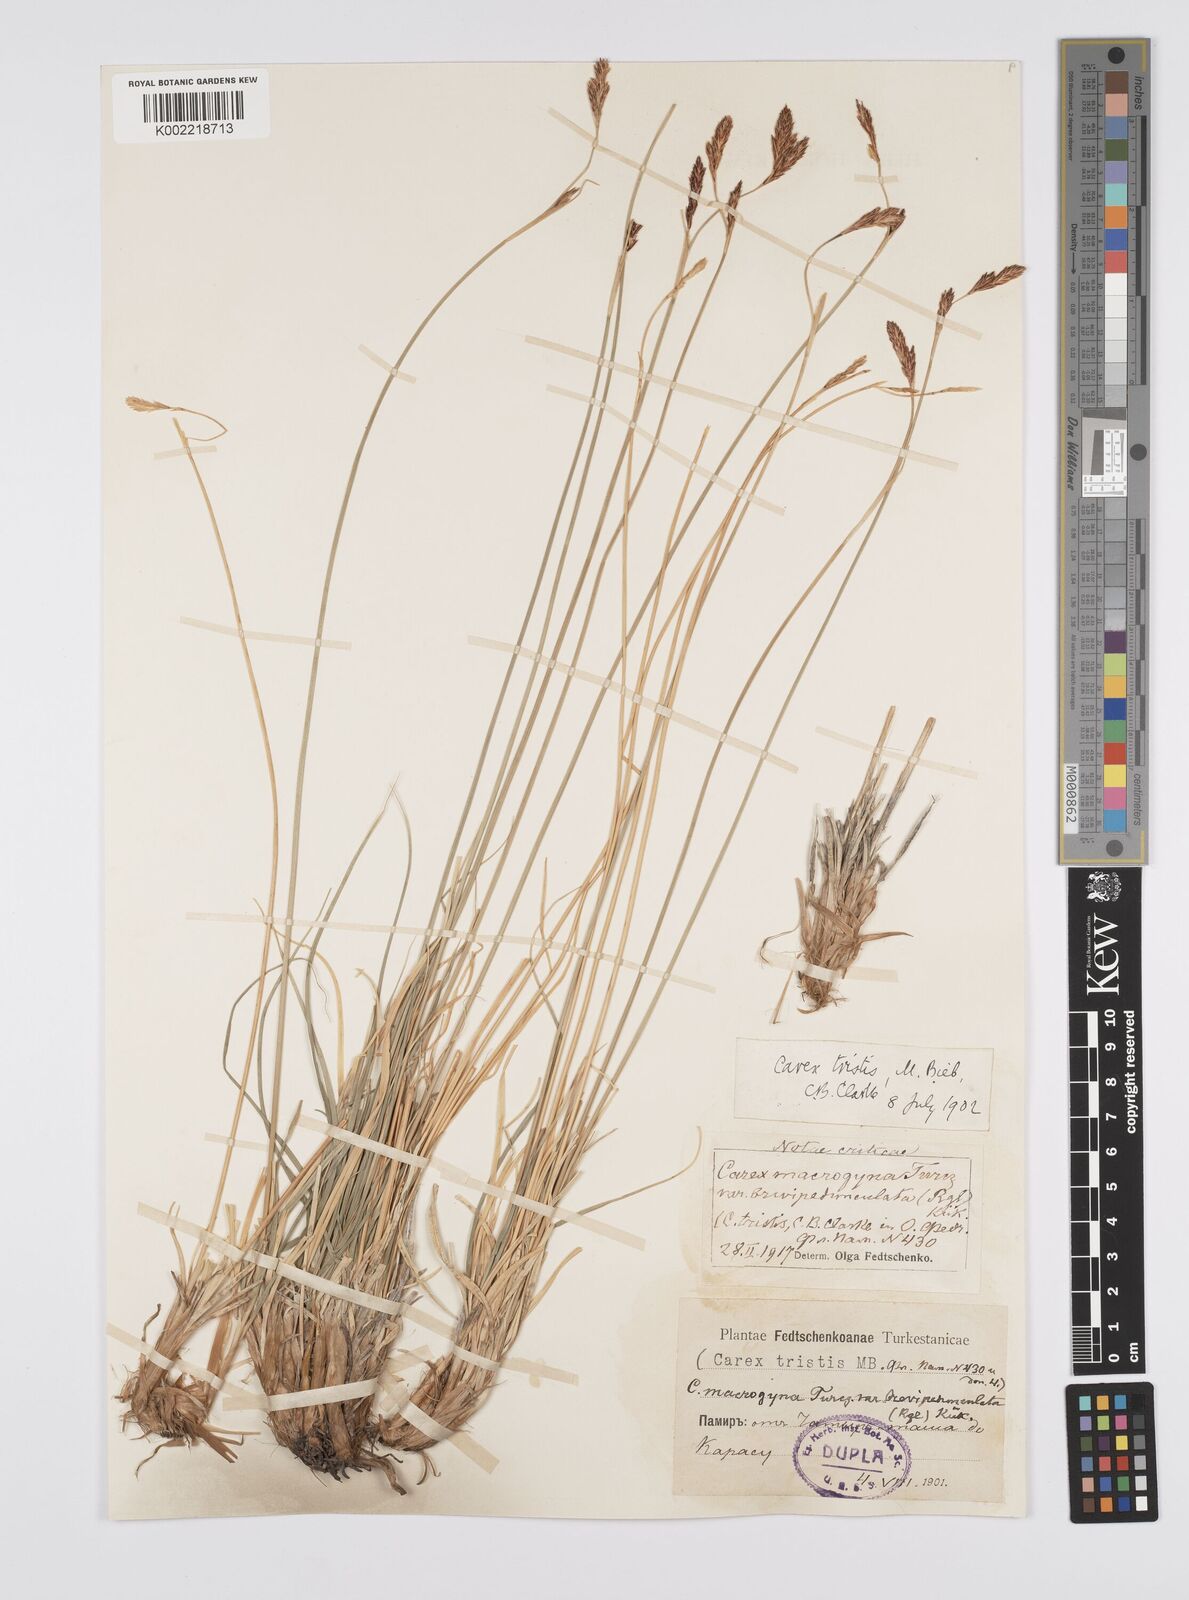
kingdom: Plantae
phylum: Tracheophyta
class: Liliopsida
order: Poales
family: Cyperaceae
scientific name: Cyperaceae
